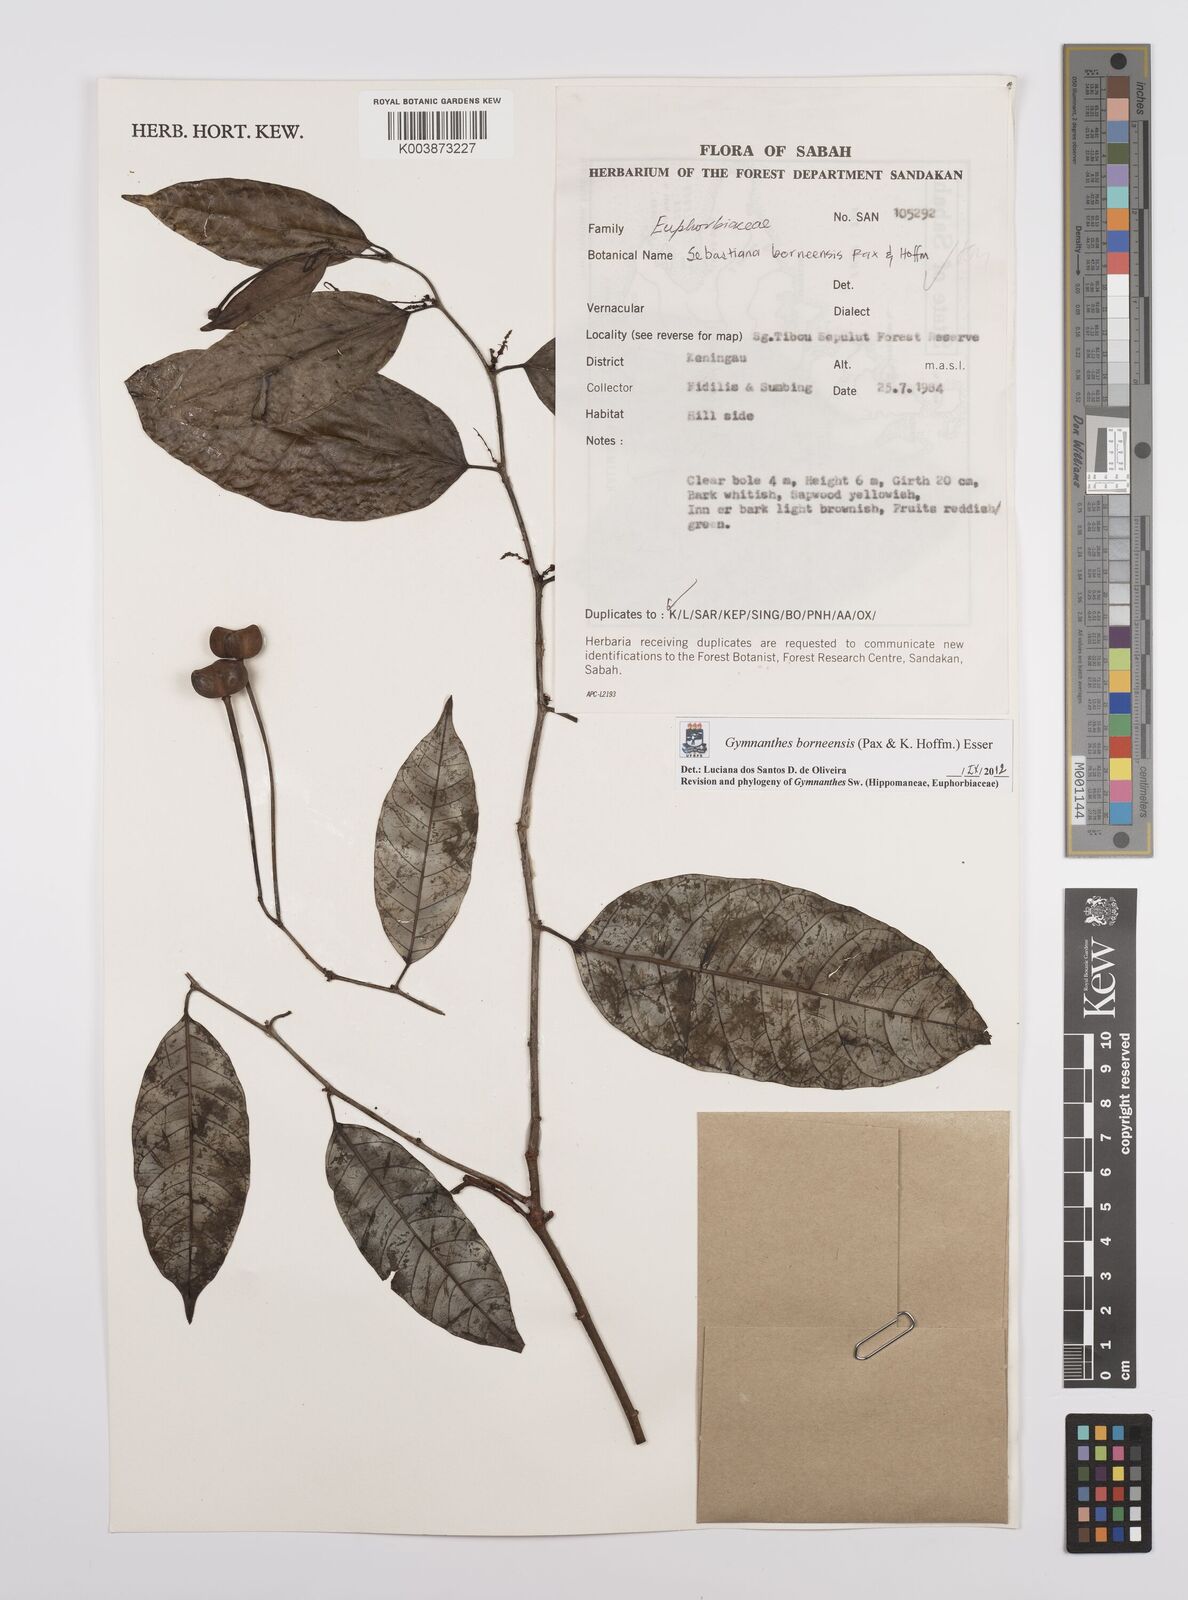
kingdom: Plantae
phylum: Tracheophyta
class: Magnoliopsida
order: Malpighiales
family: Euphorbiaceae
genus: Gymnanthes
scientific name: Gymnanthes borneensis
